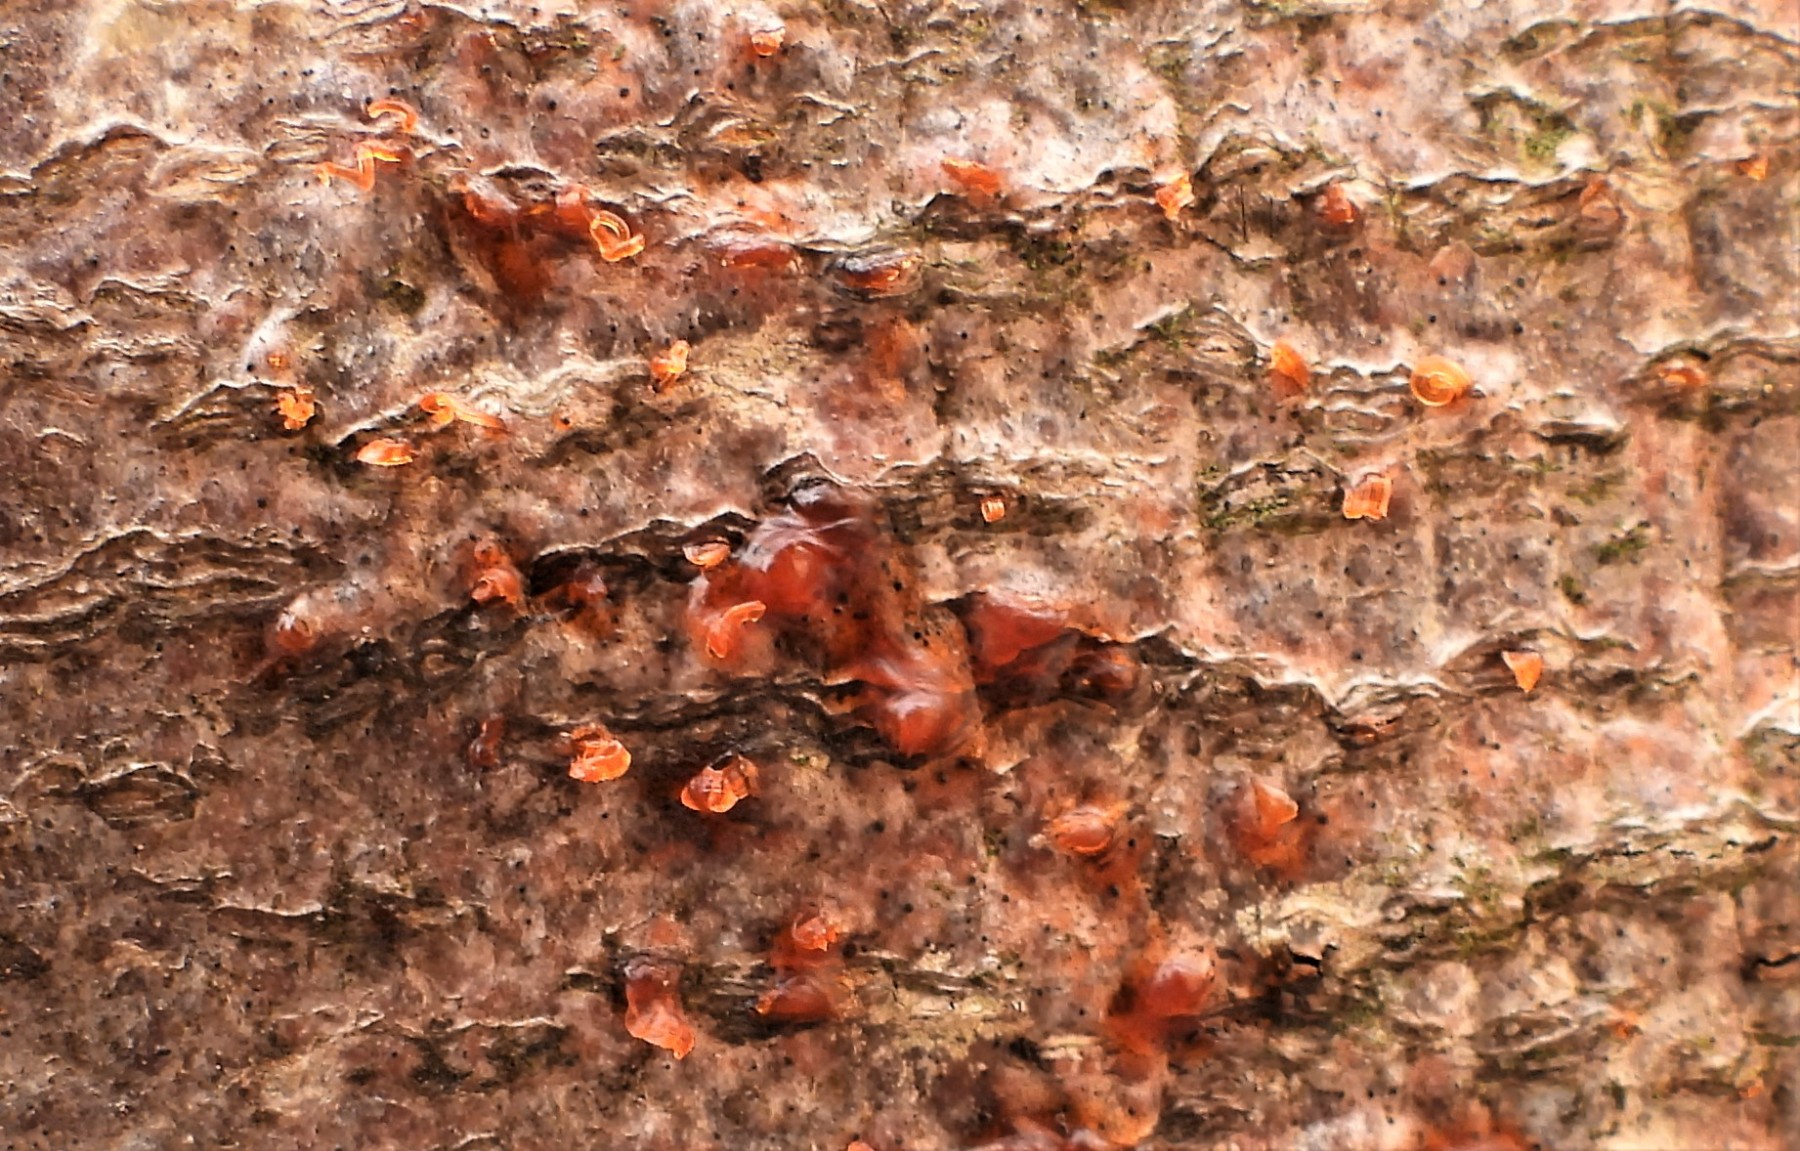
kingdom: Fungi
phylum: Ascomycota
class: Sordariomycetes
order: Xylariales
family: Diatrypaceae
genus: Eutypella
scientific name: Eutypella quaternata
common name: bøge-korsprik
